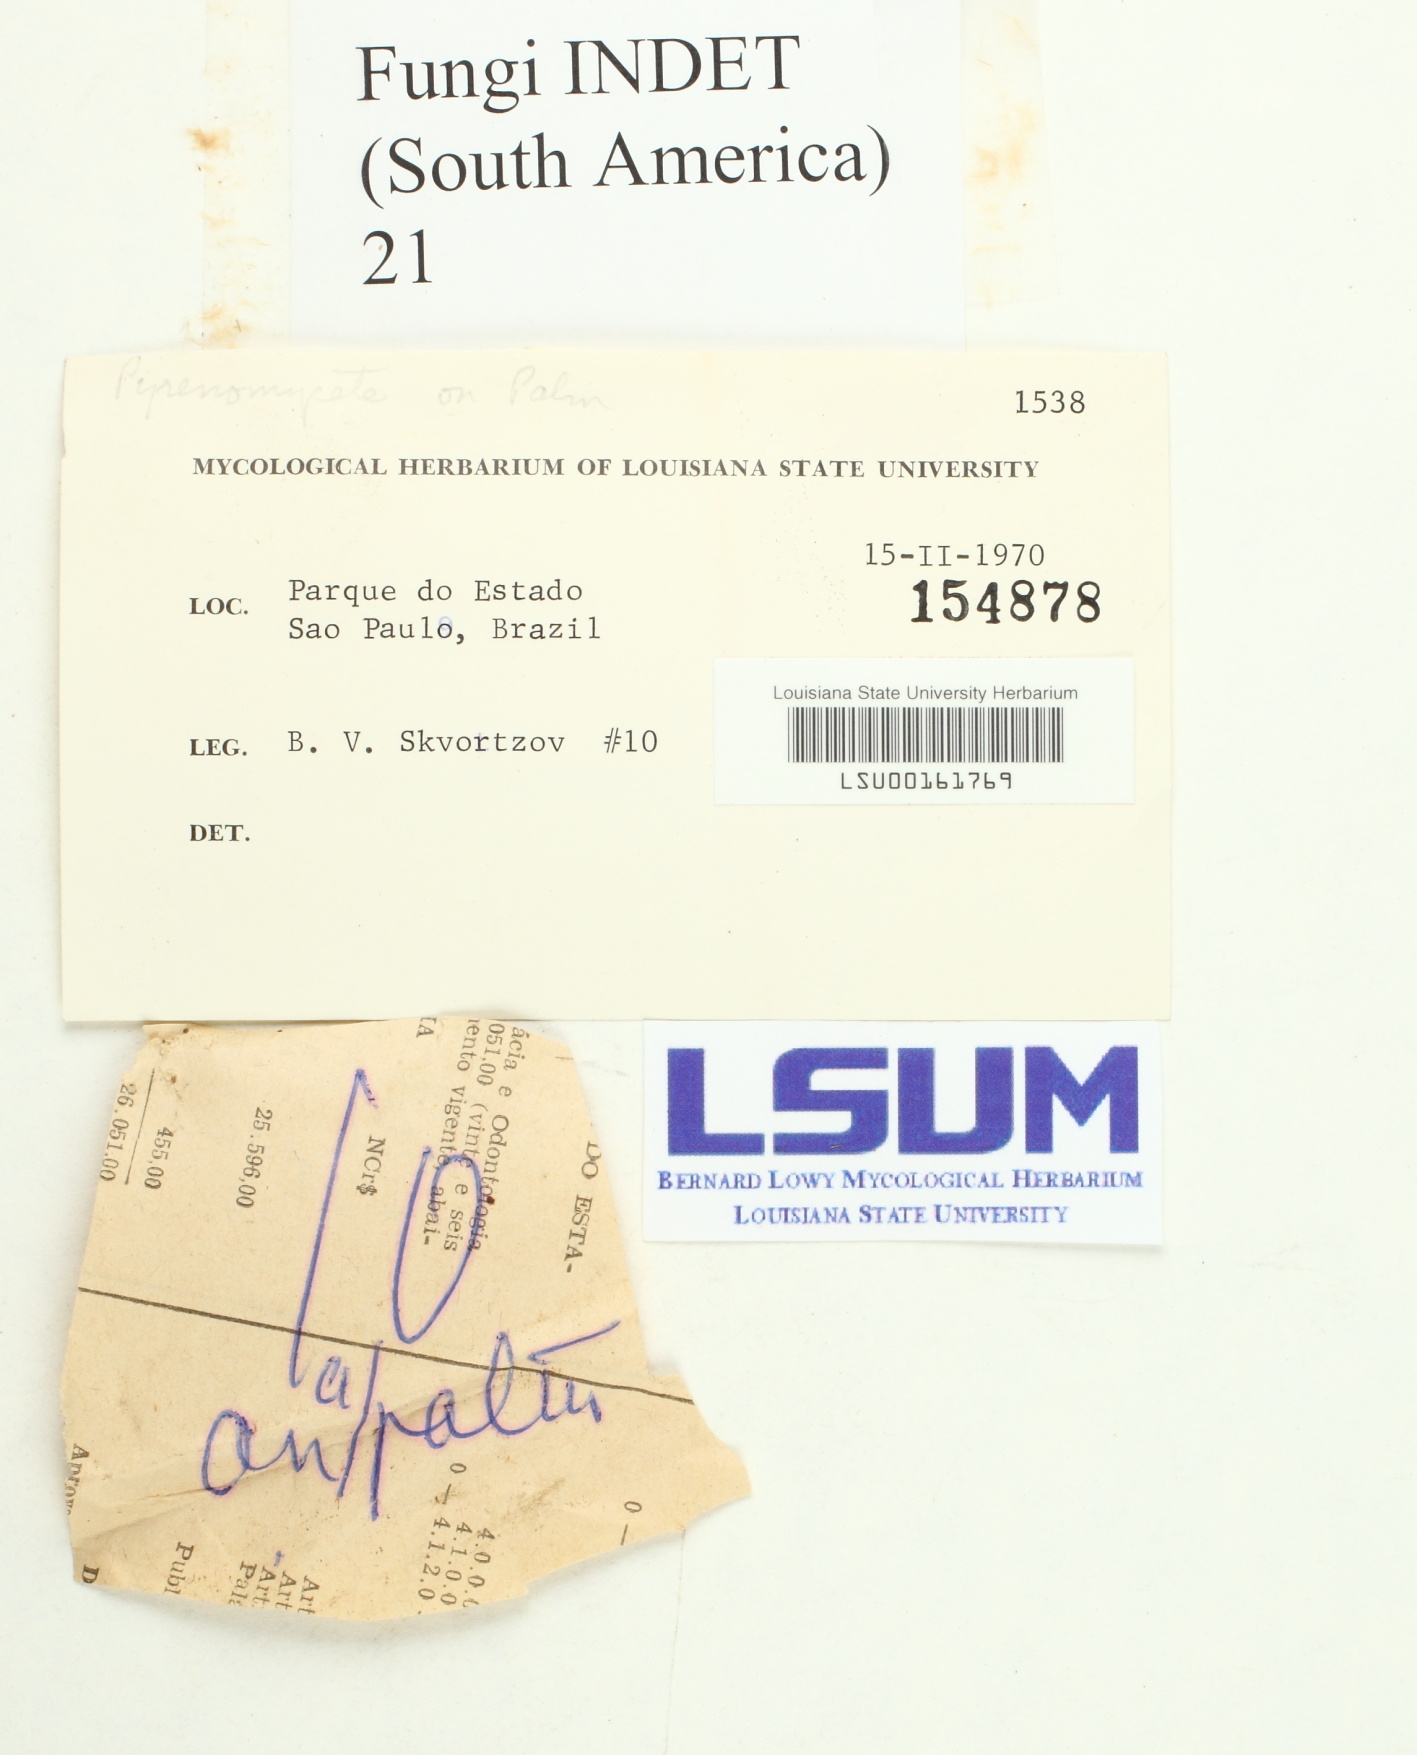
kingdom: Fungi
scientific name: Fungi
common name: Fungi
